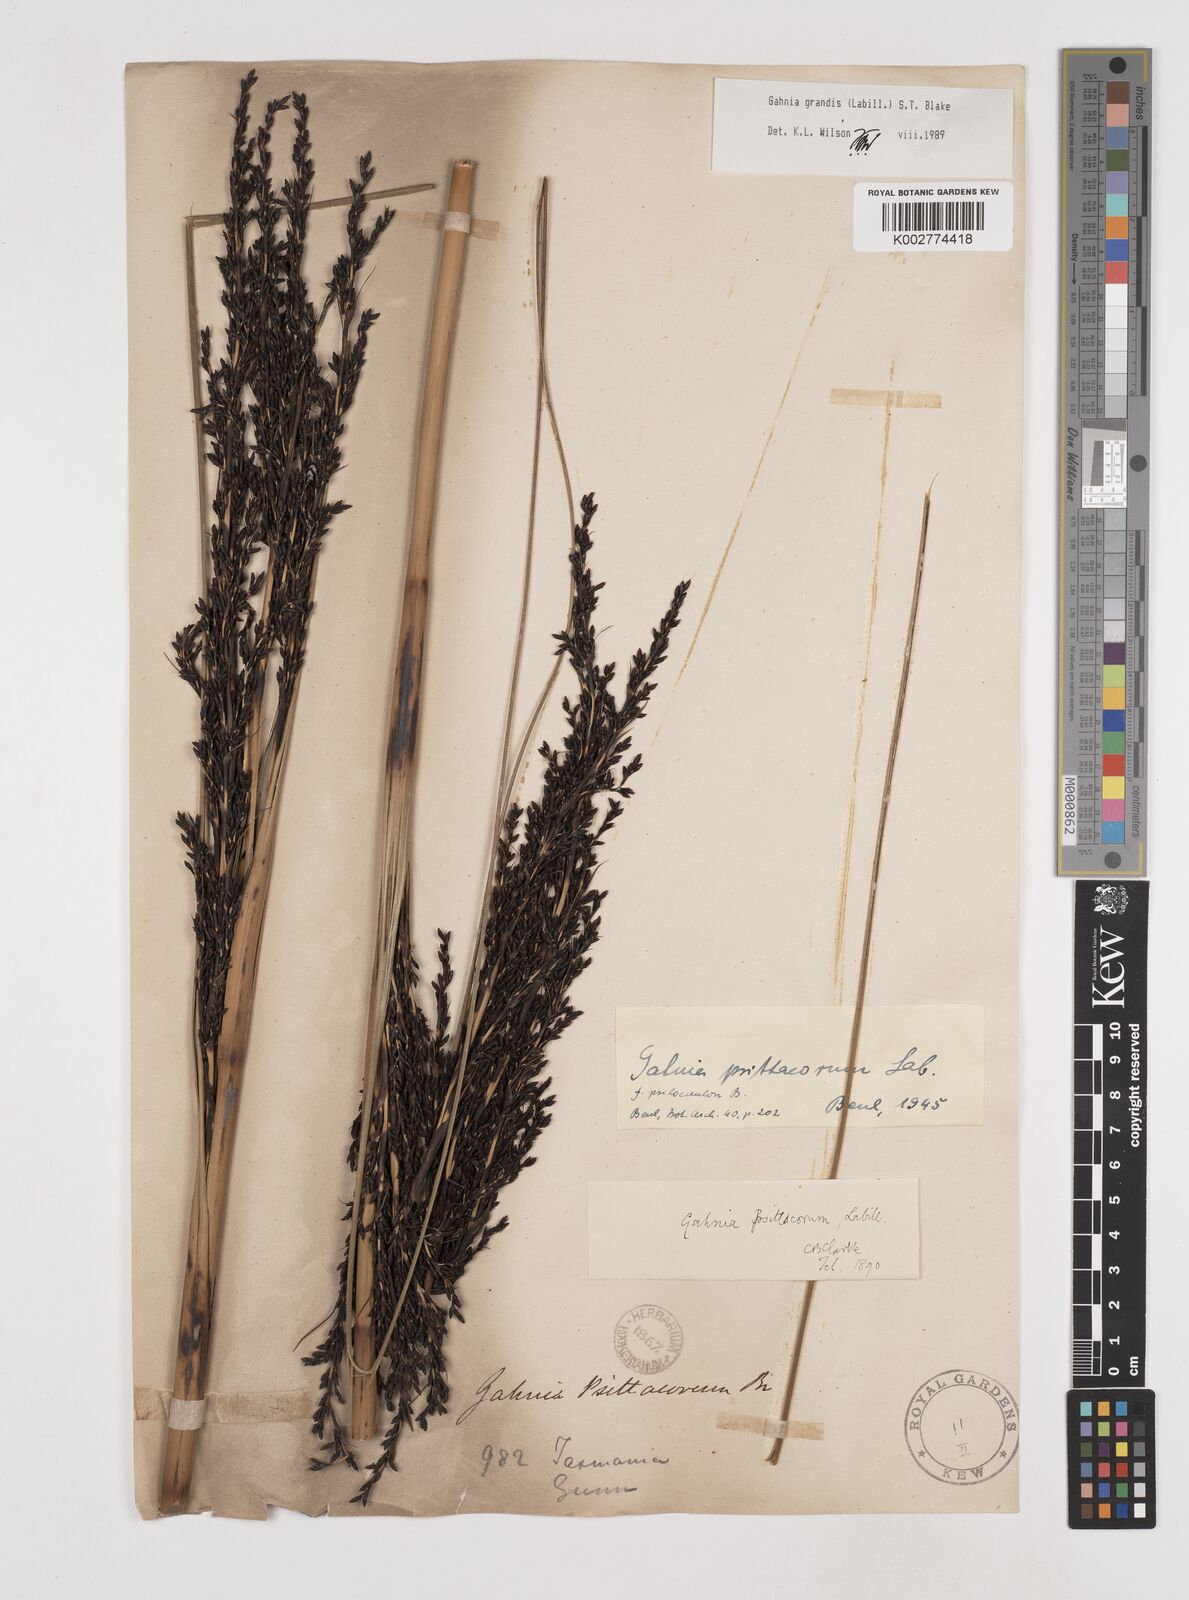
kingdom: Plantae
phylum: Tracheophyta
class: Liliopsida
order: Poales
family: Cyperaceae
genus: Gahnia
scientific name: Gahnia grandis
